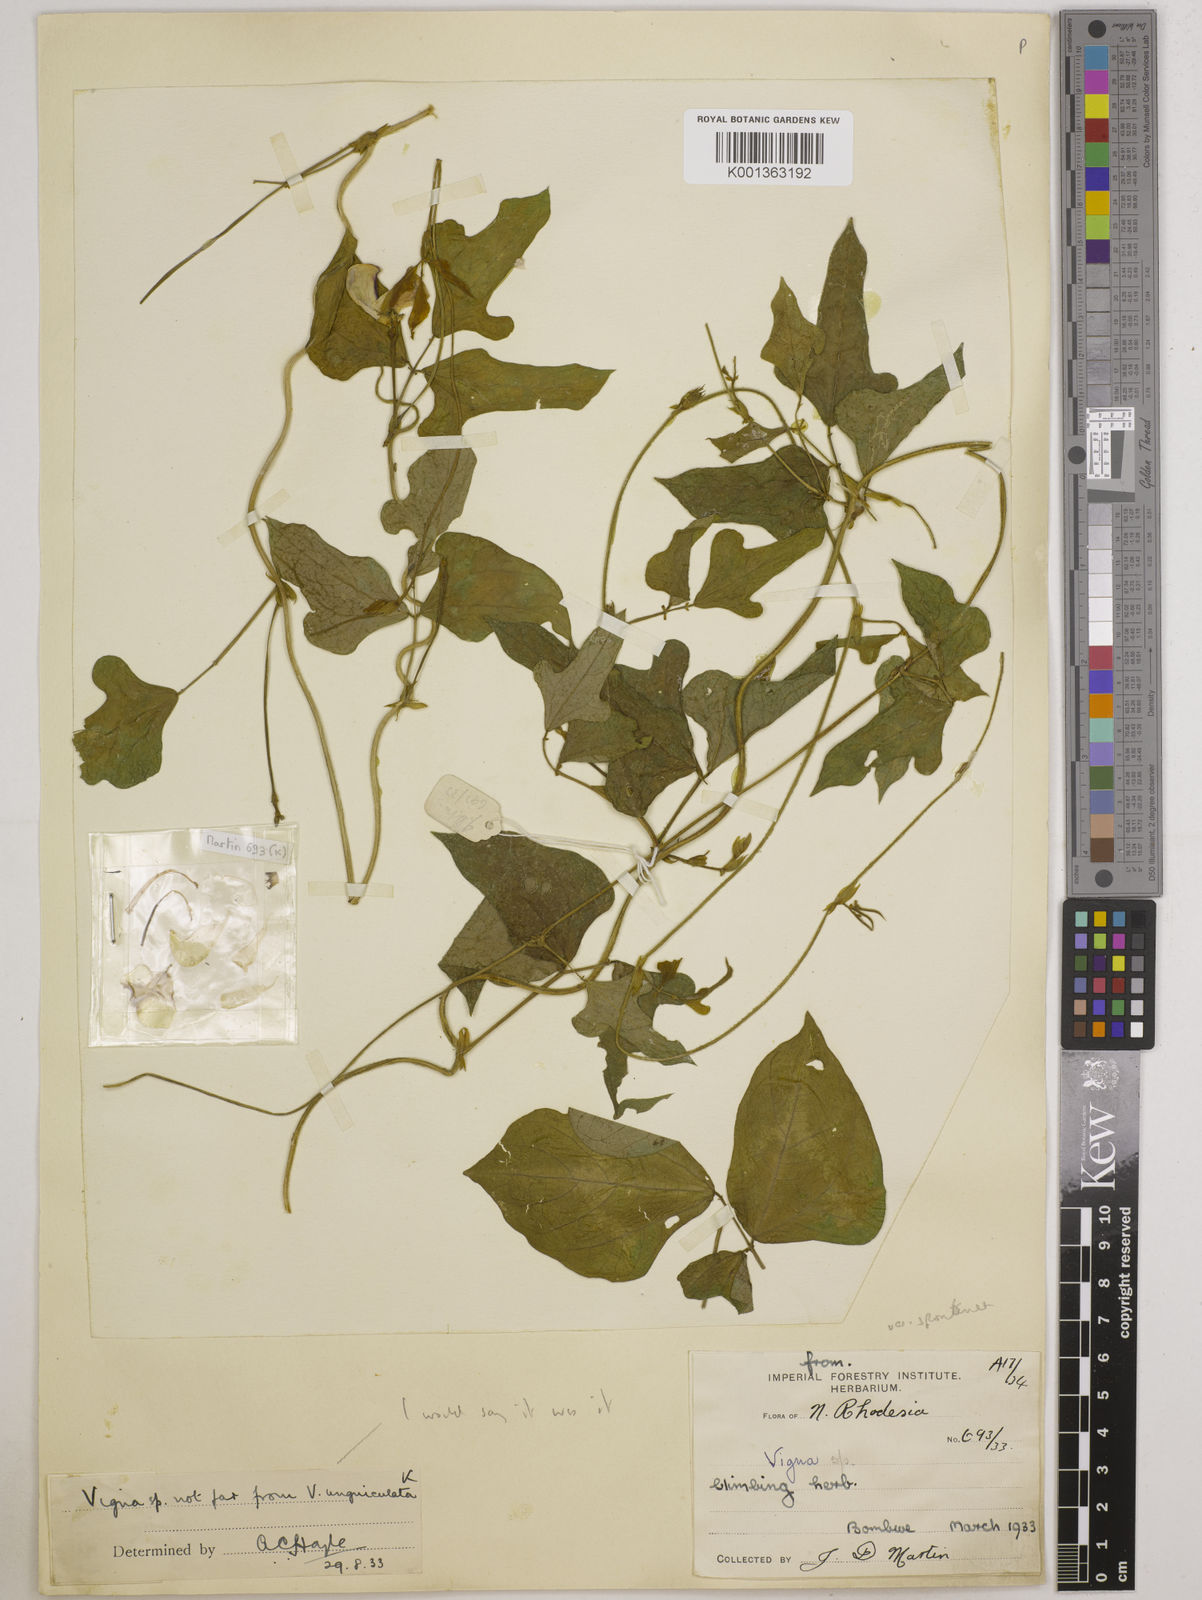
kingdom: Plantae
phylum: Tracheophyta
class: Magnoliopsida
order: Fabales
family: Fabaceae
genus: Vigna
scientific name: Vigna unguiculata
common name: Cowpea
